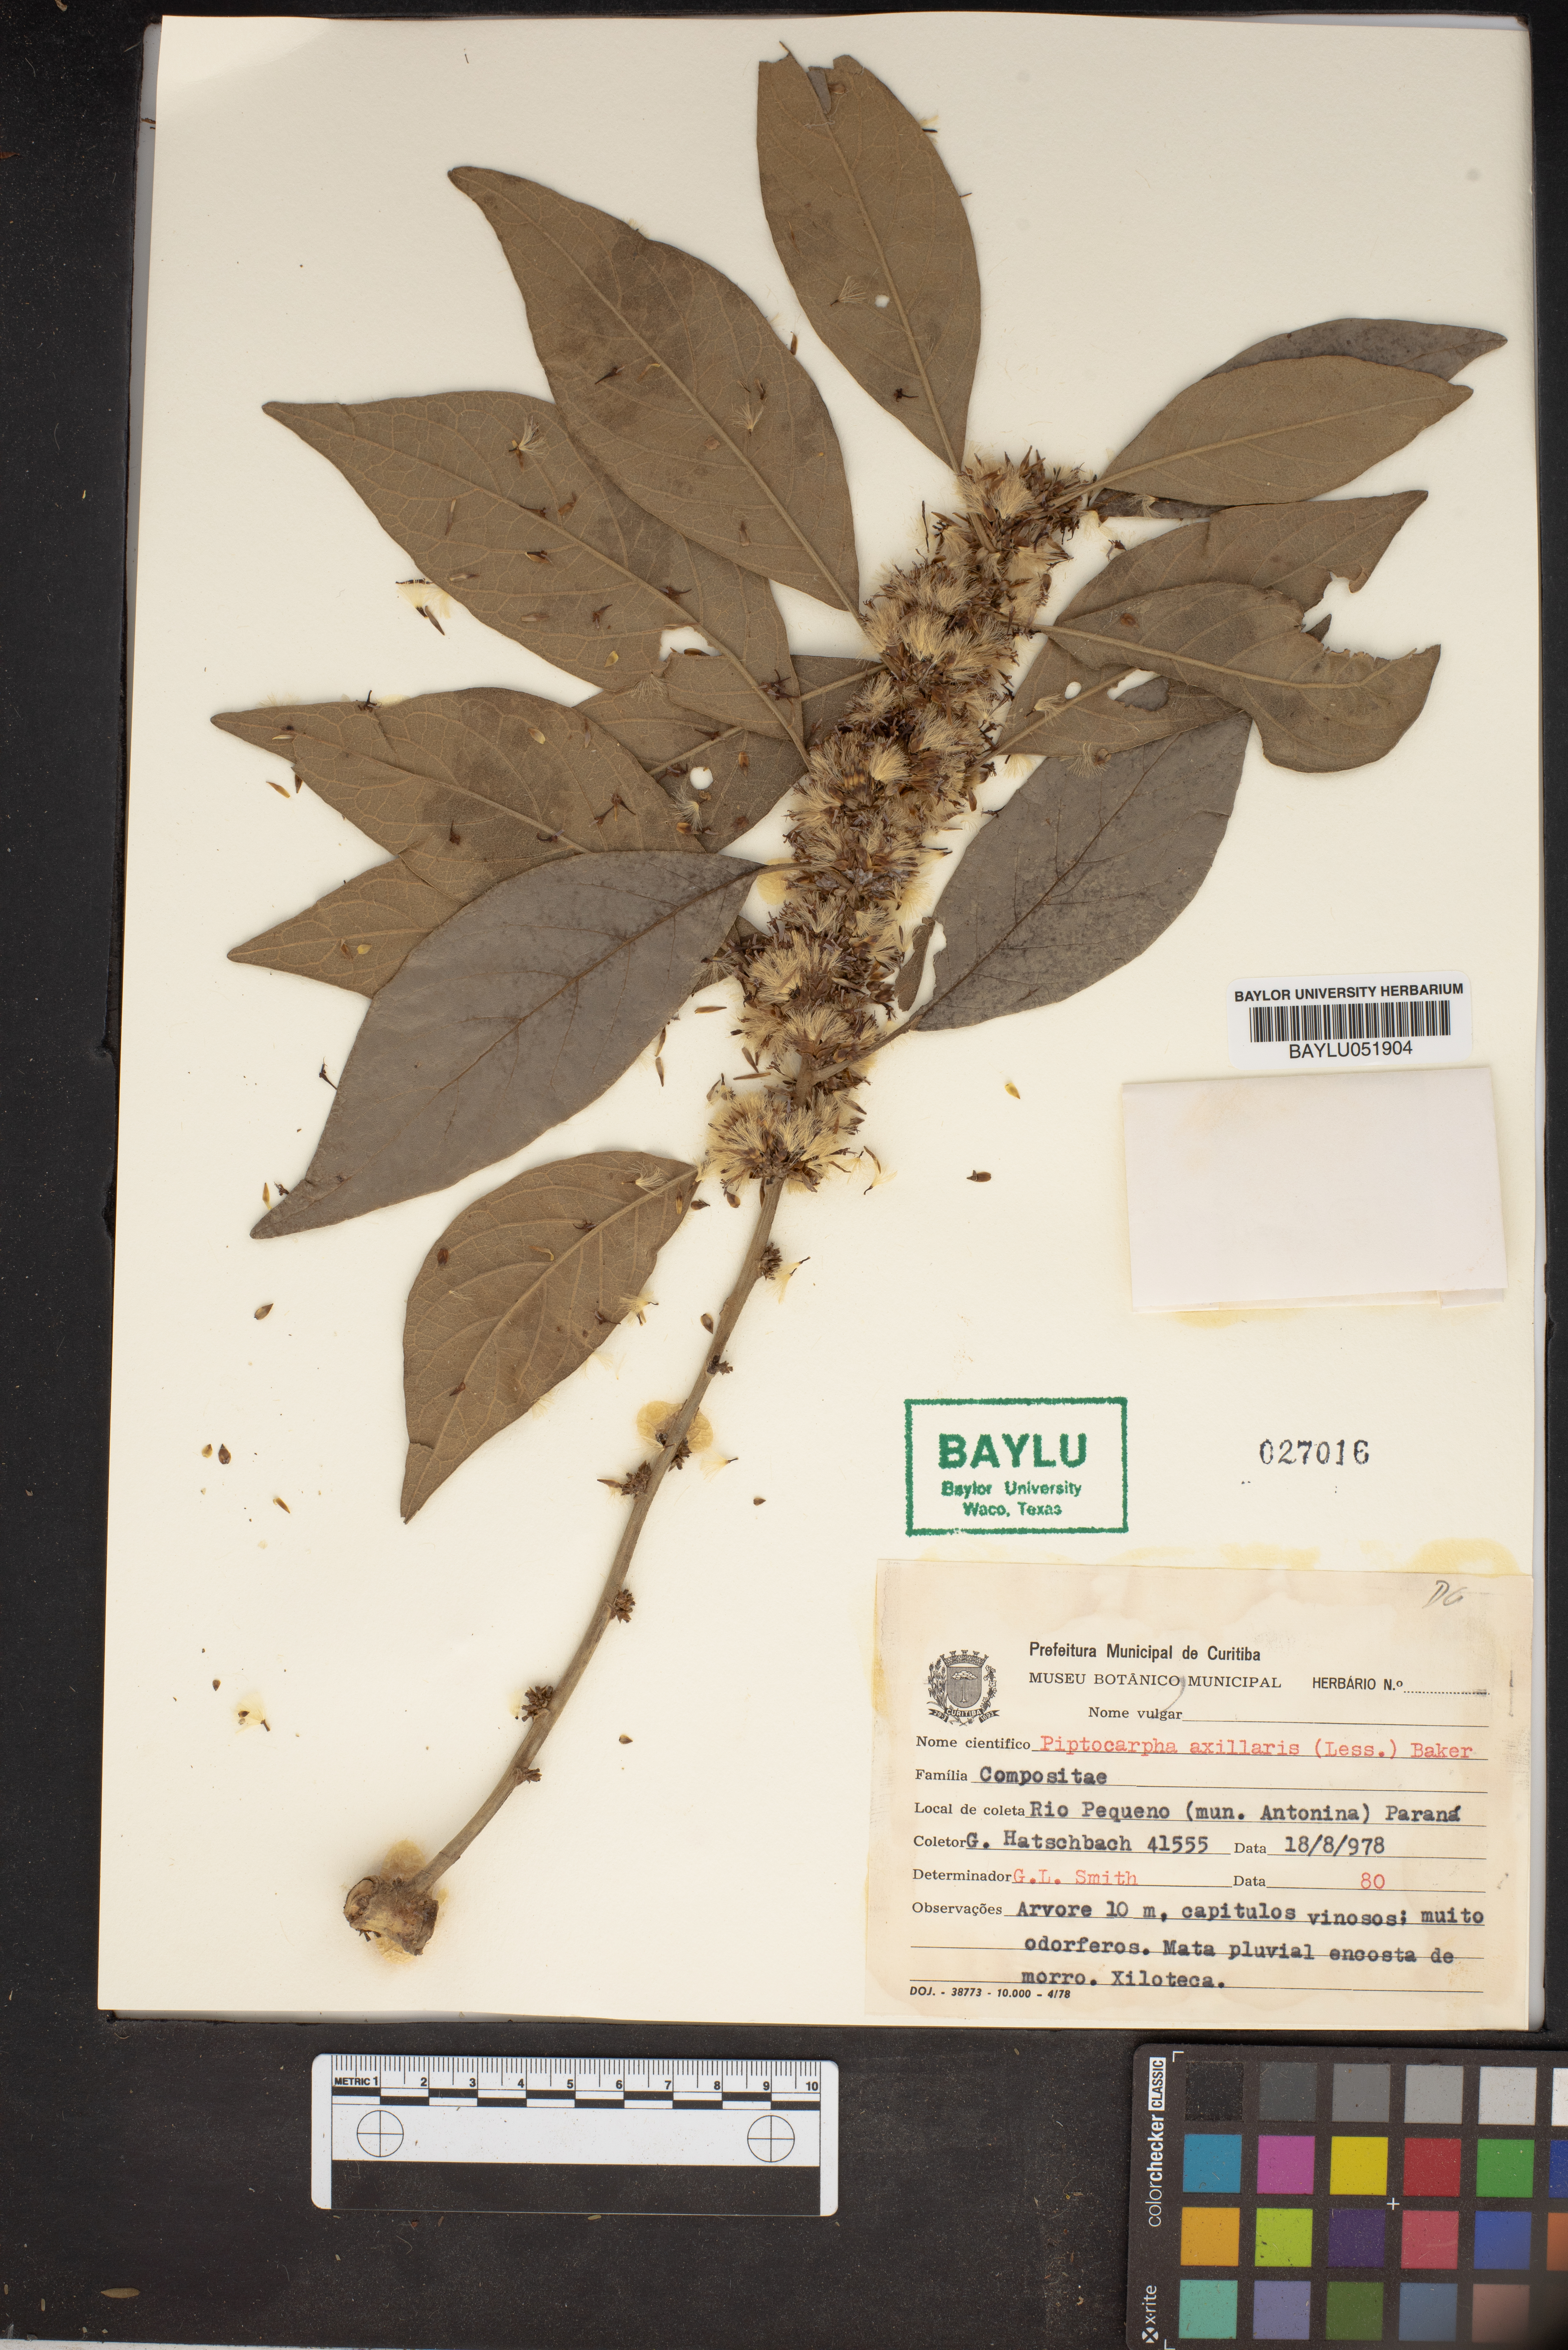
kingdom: Plantae
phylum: Tracheophyta
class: Magnoliopsida
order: Asterales
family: Asteraceae
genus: Piptocarpha
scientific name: Piptocarpha axillaris
